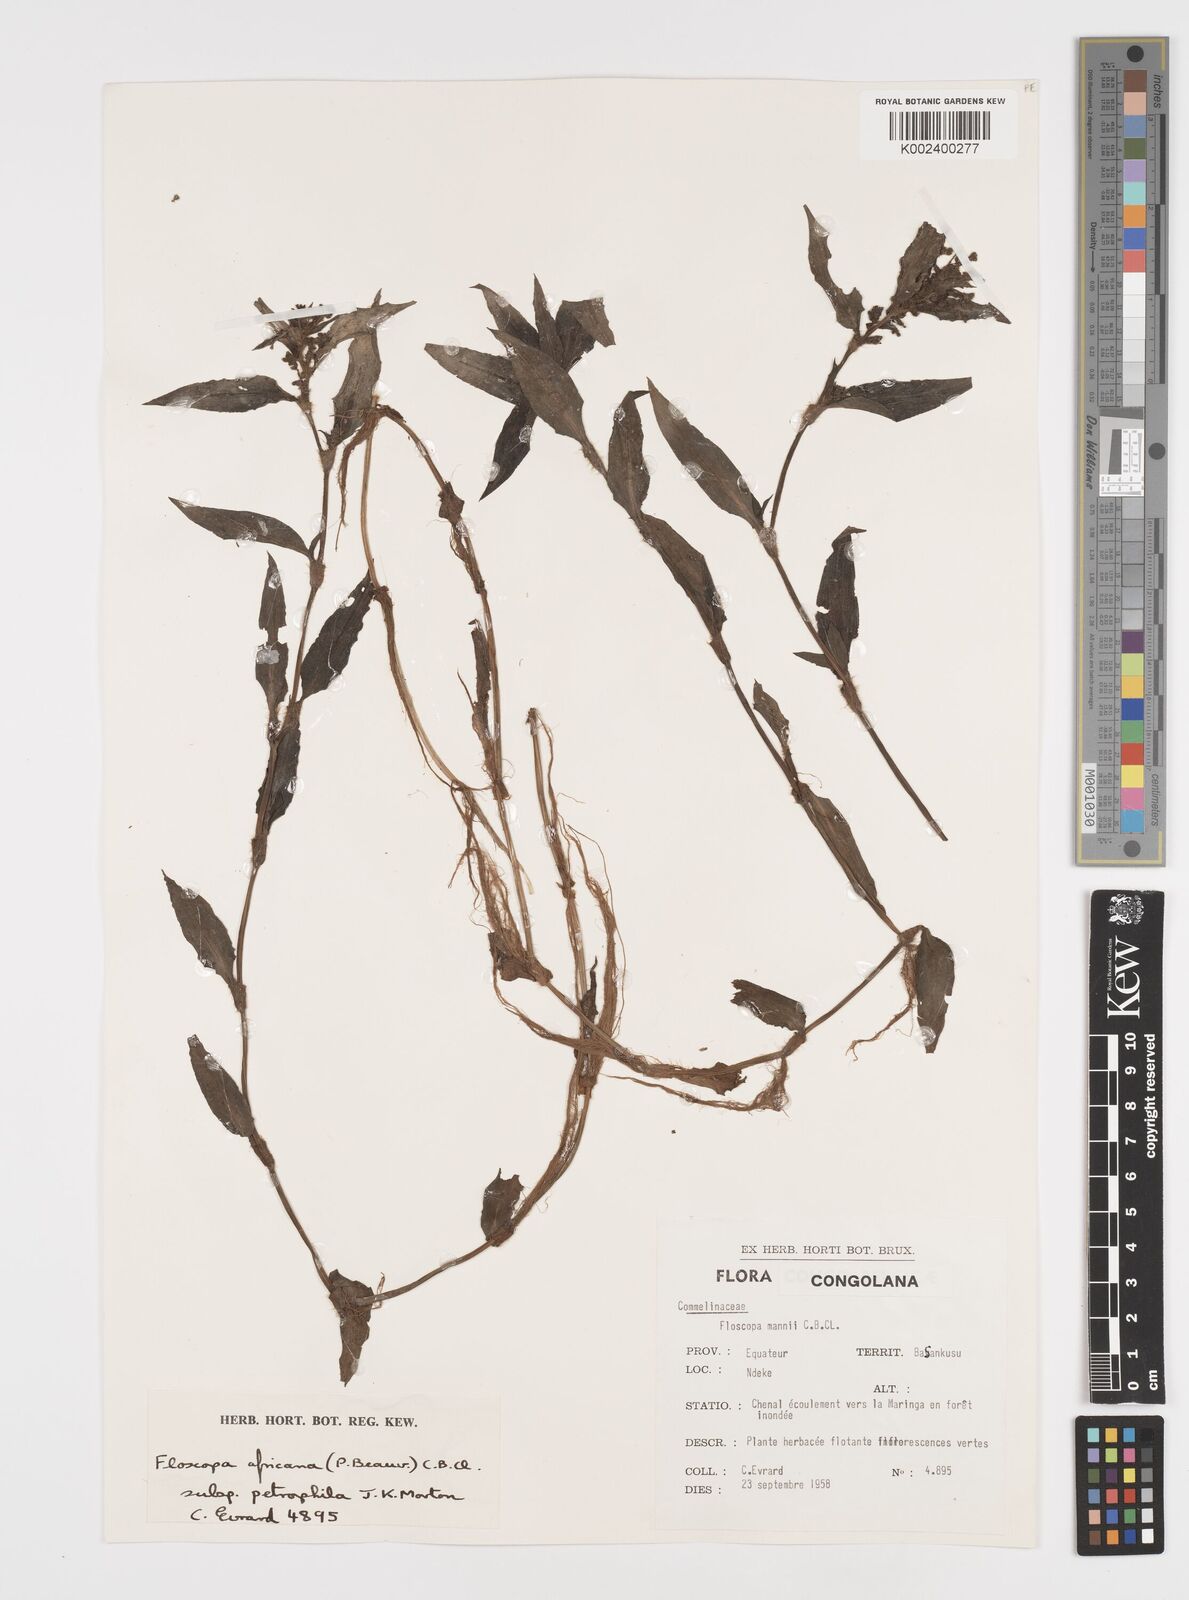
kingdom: Plantae
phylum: Tracheophyta
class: Liliopsida
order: Commelinales
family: Commelinaceae
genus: Floscopa
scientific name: Floscopa africana
